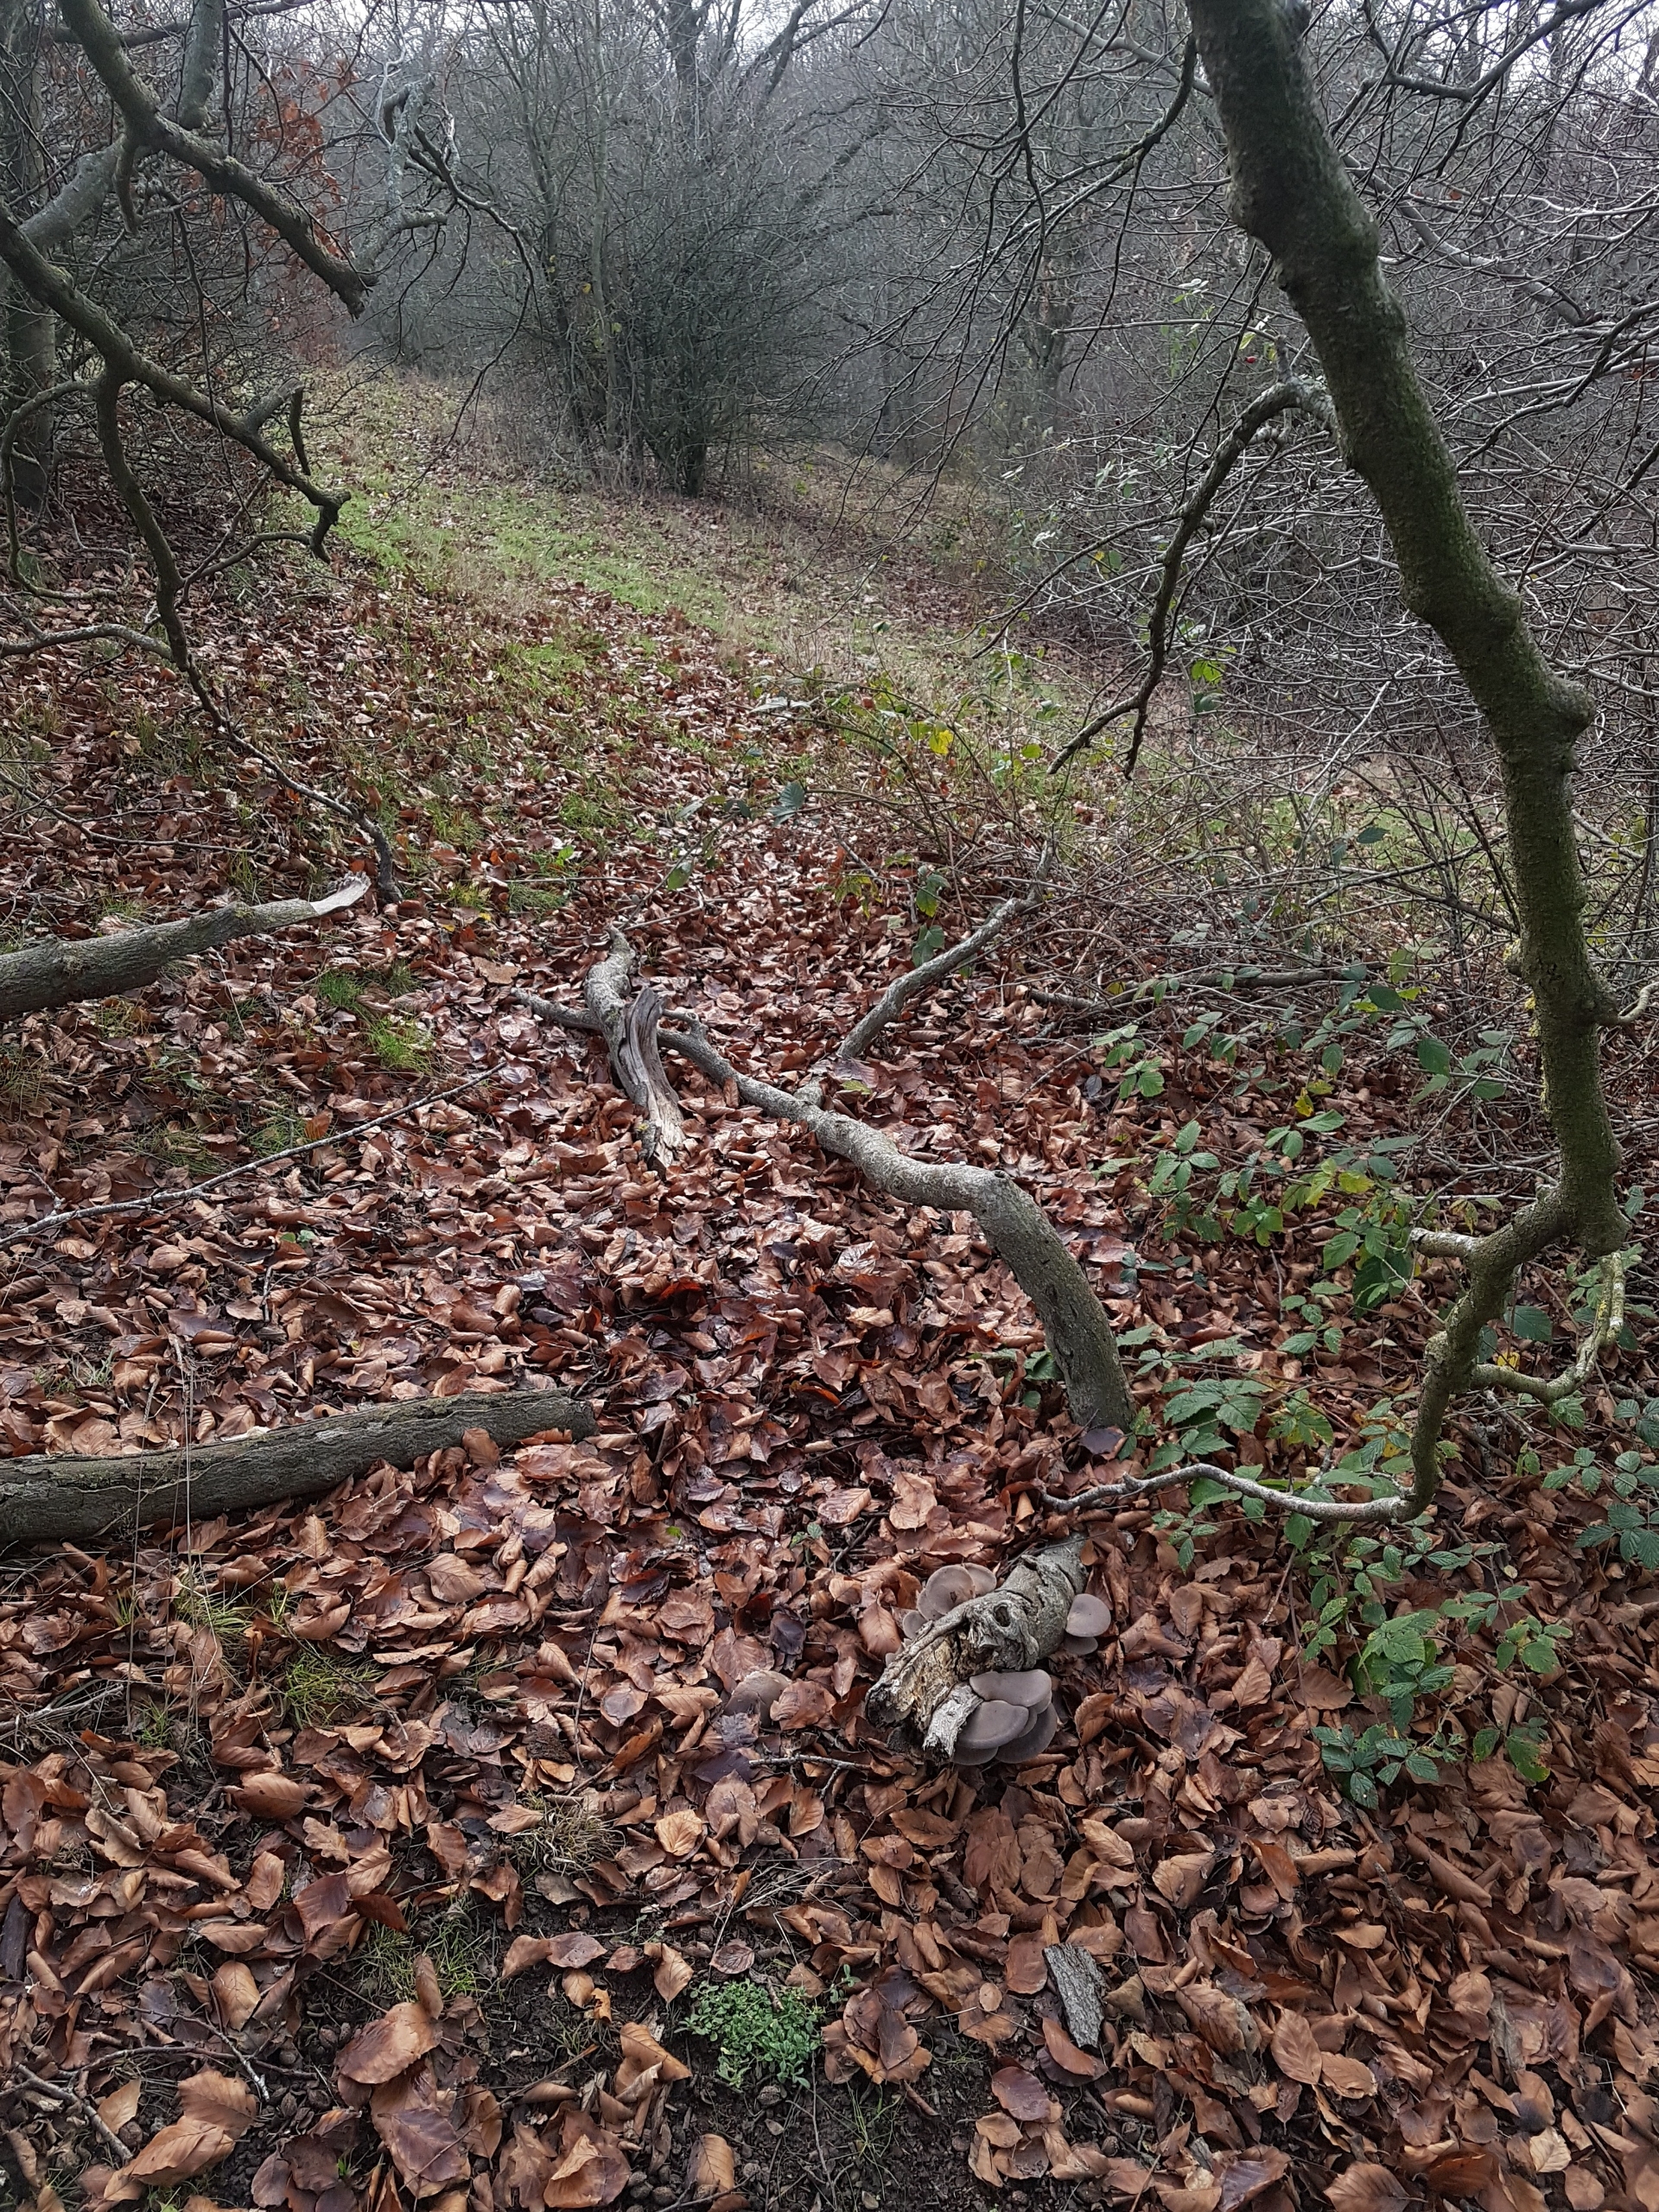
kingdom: Fungi
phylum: Basidiomycota
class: Agaricomycetes
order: Agaricales
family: Pleurotaceae
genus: Pleurotus
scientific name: Pleurotus ostreatus
